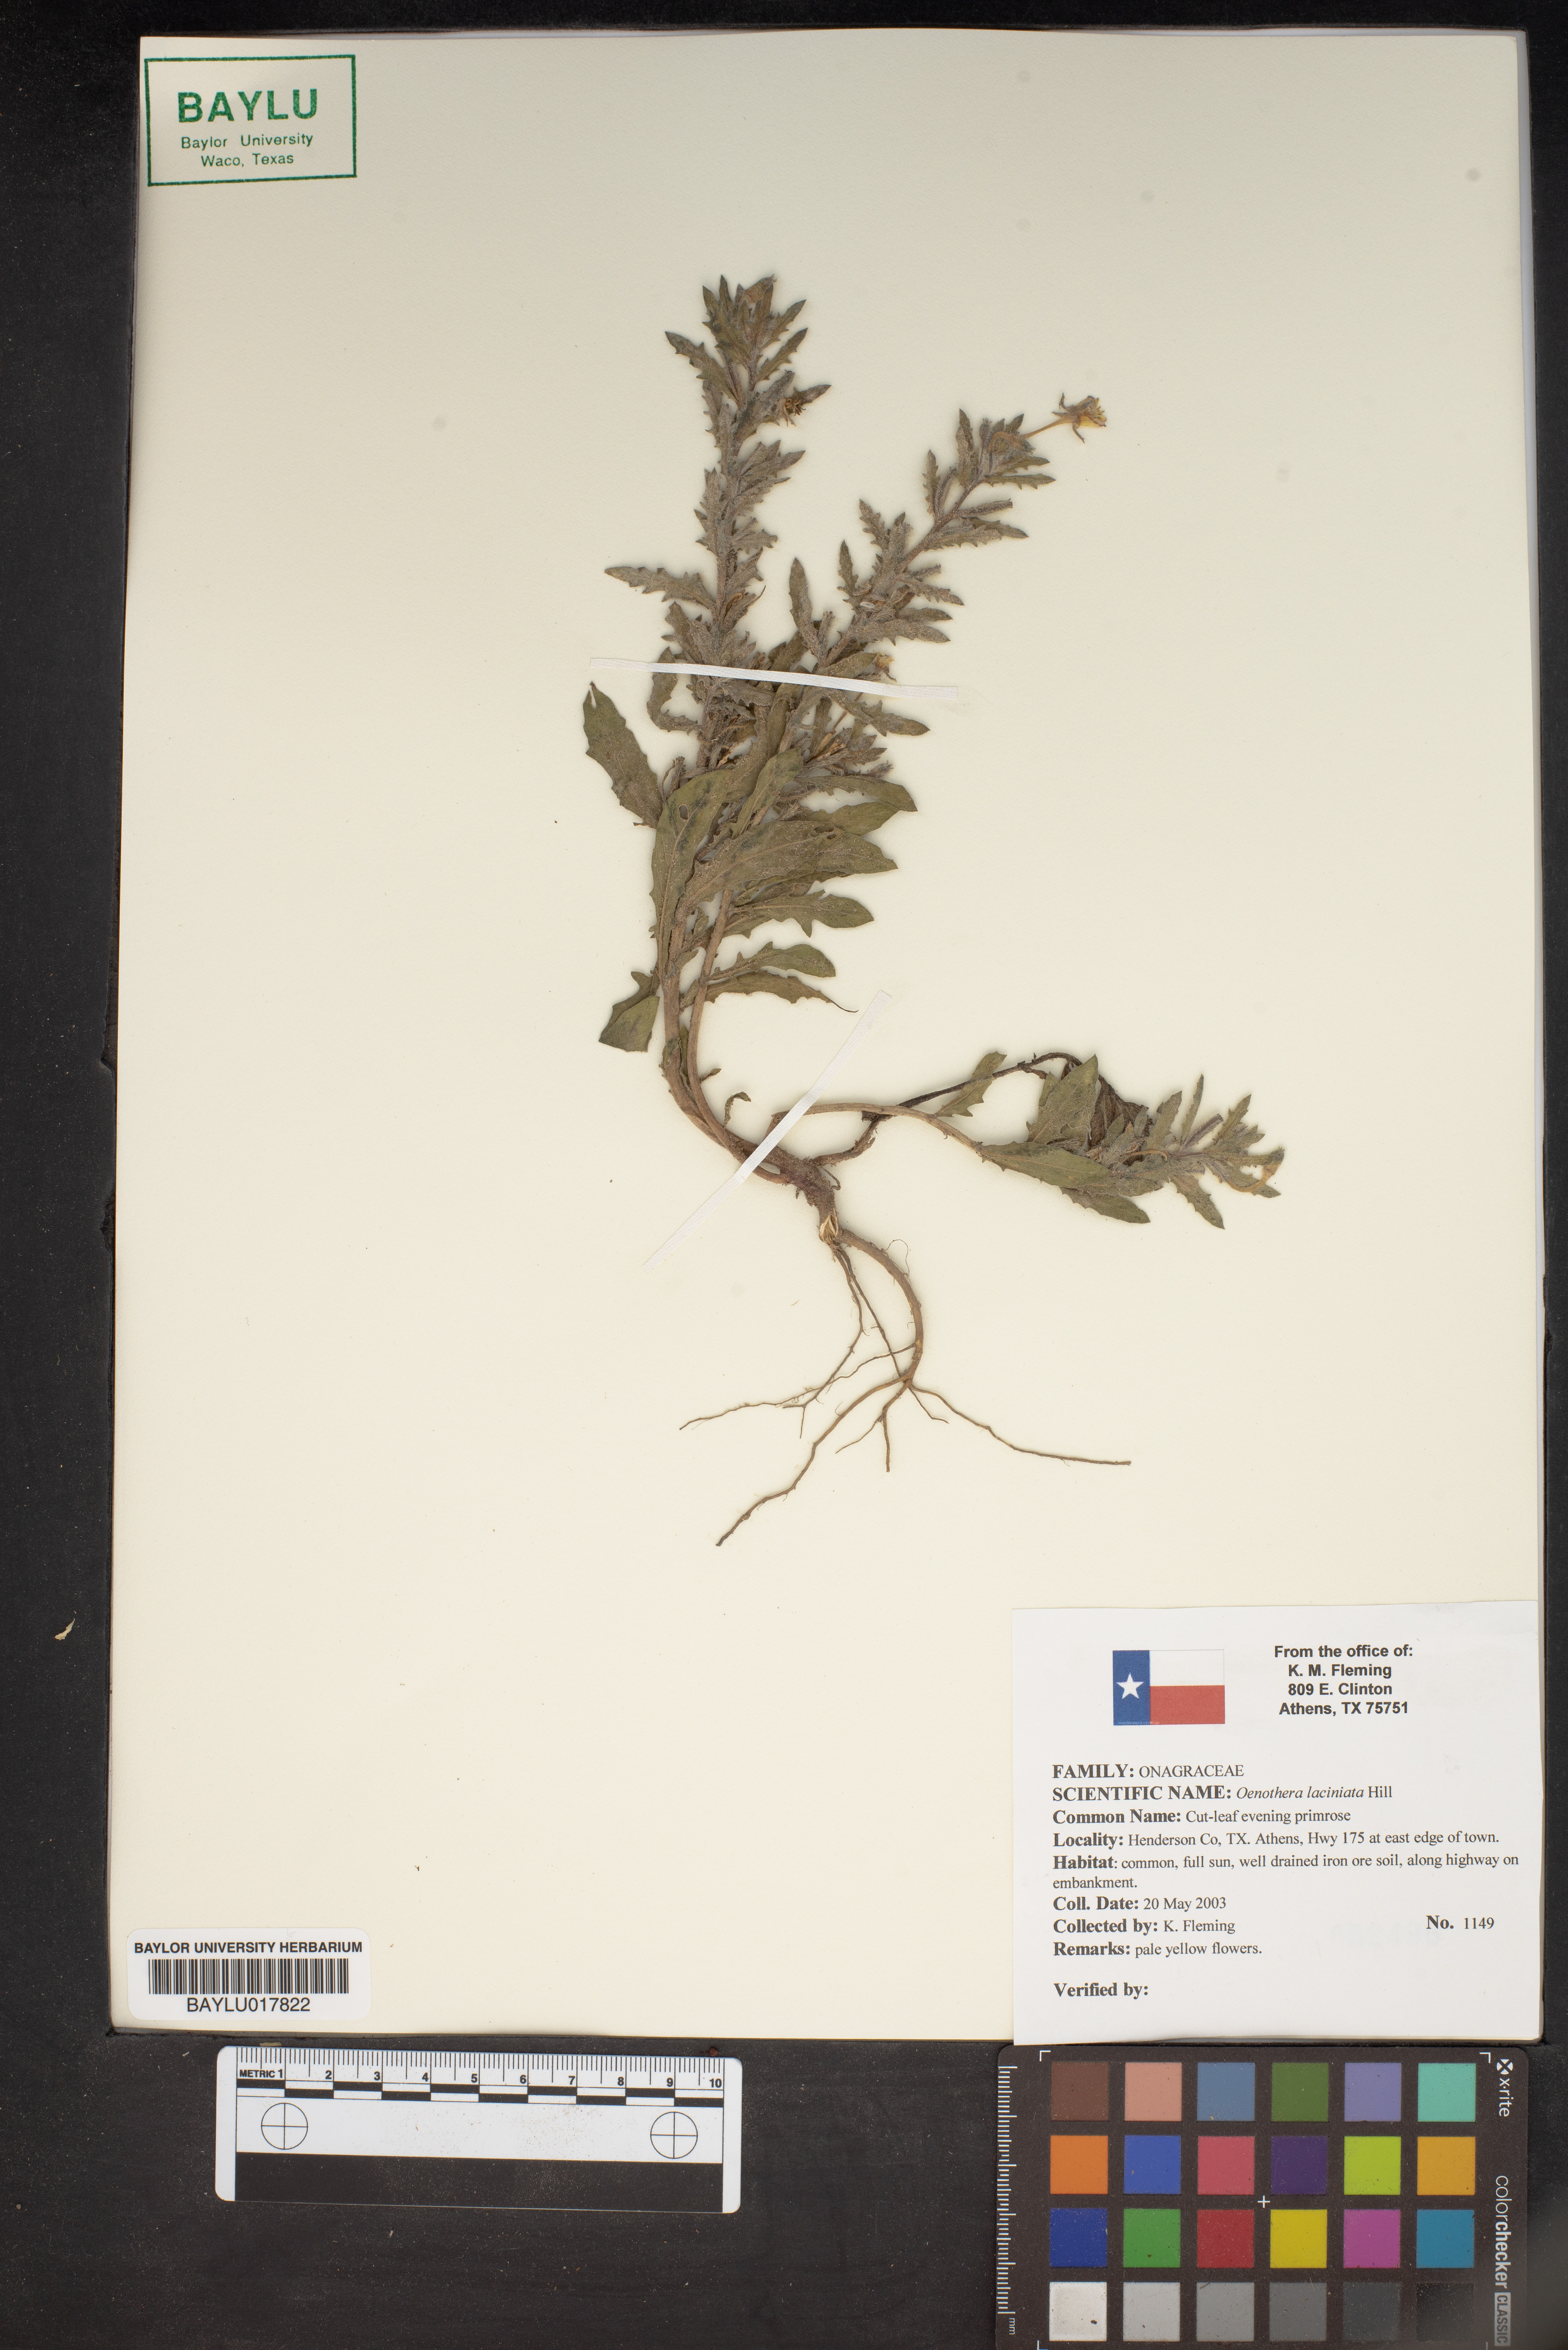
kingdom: Plantae
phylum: Tracheophyta
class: Magnoliopsida
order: Myrtales
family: Onagraceae
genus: Oenothera
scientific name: Oenothera laciniata
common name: Cut-leaved evening-primrose
